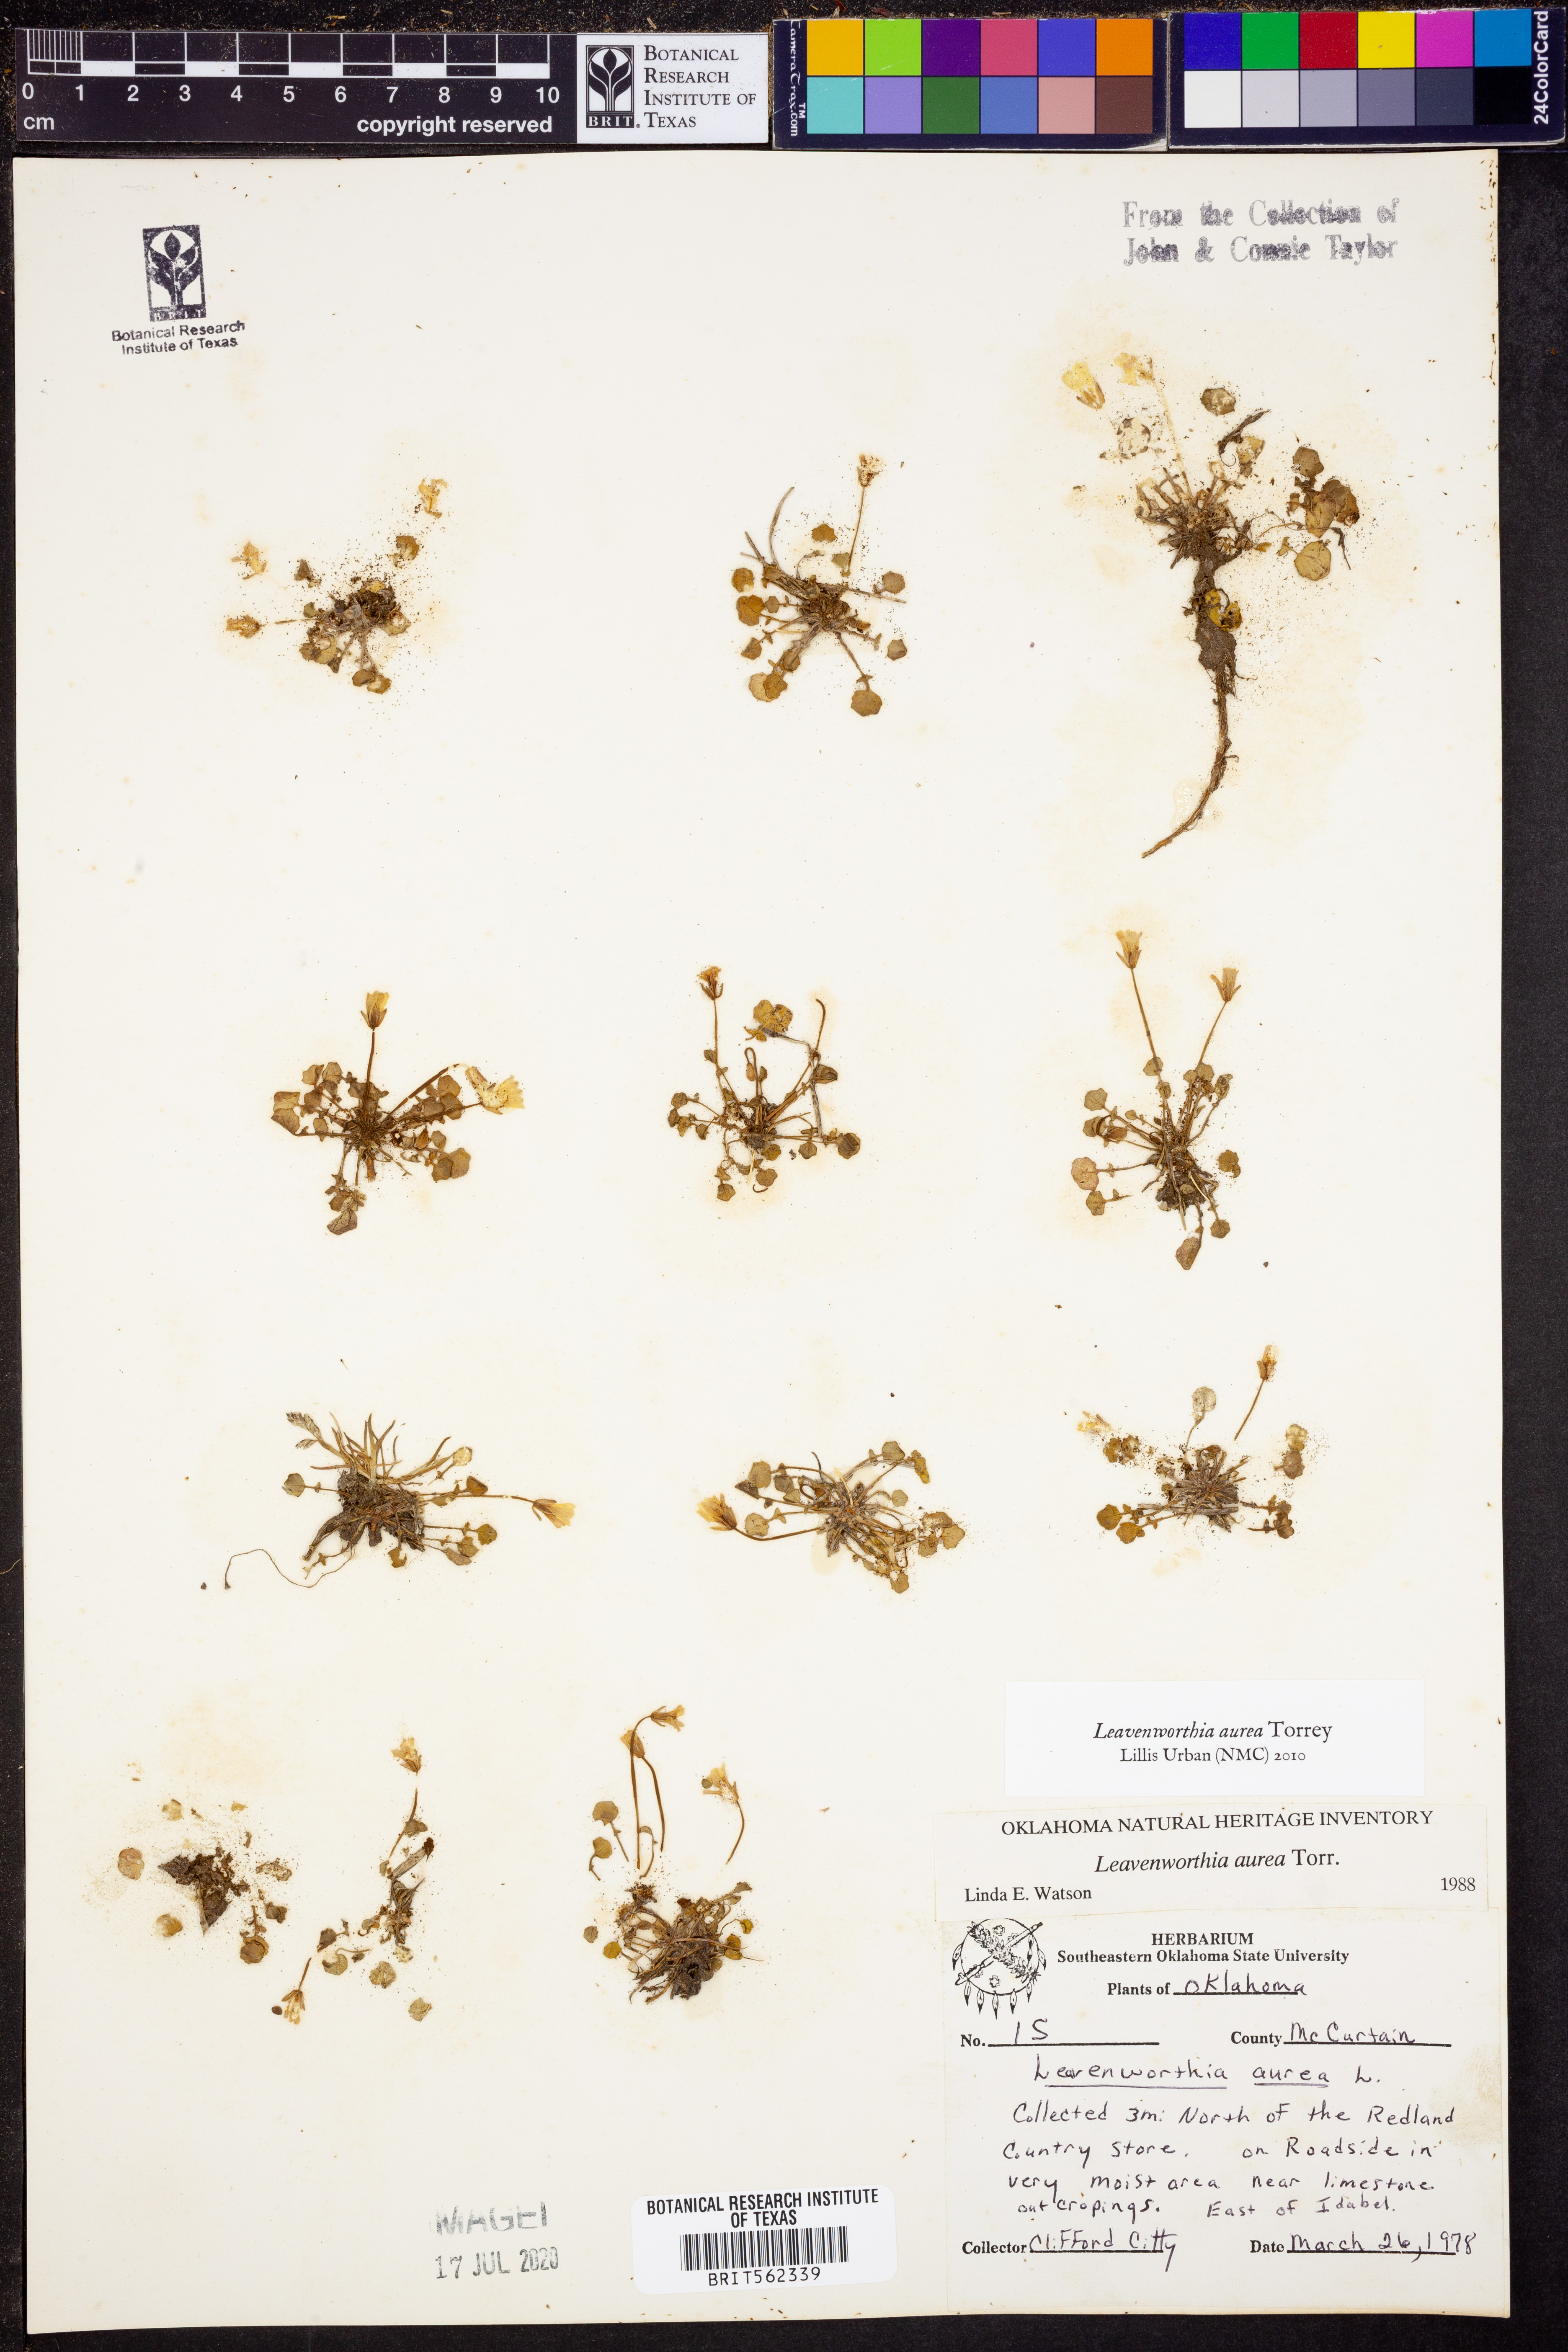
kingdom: Plantae
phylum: Tracheophyta
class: Magnoliopsida
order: Brassicales
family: Brassicaceae
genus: Leavenworthia
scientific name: Leavenworthia aurea
